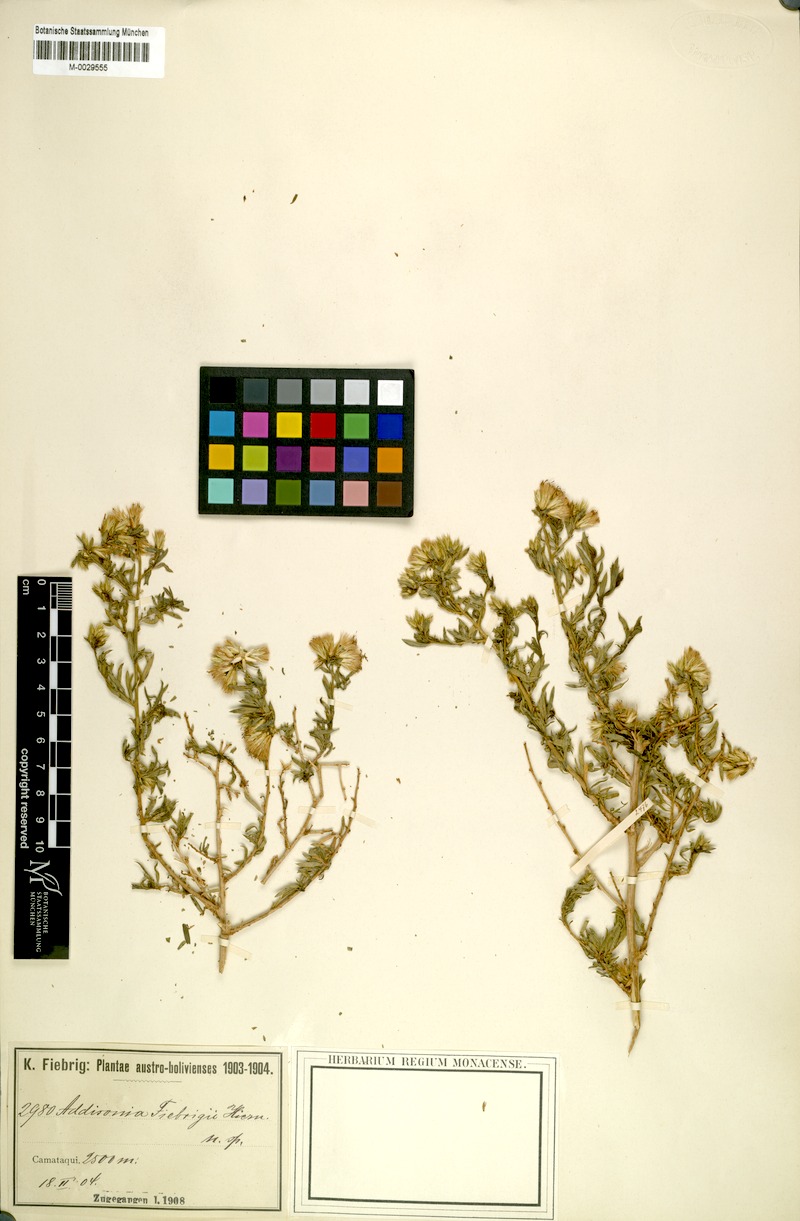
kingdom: Plantae
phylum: Tracheophyta
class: Magnoliopsida
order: Asterales
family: Asteraceae
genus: Helogyne
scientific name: Helogyne Addisonia fiebrigii
